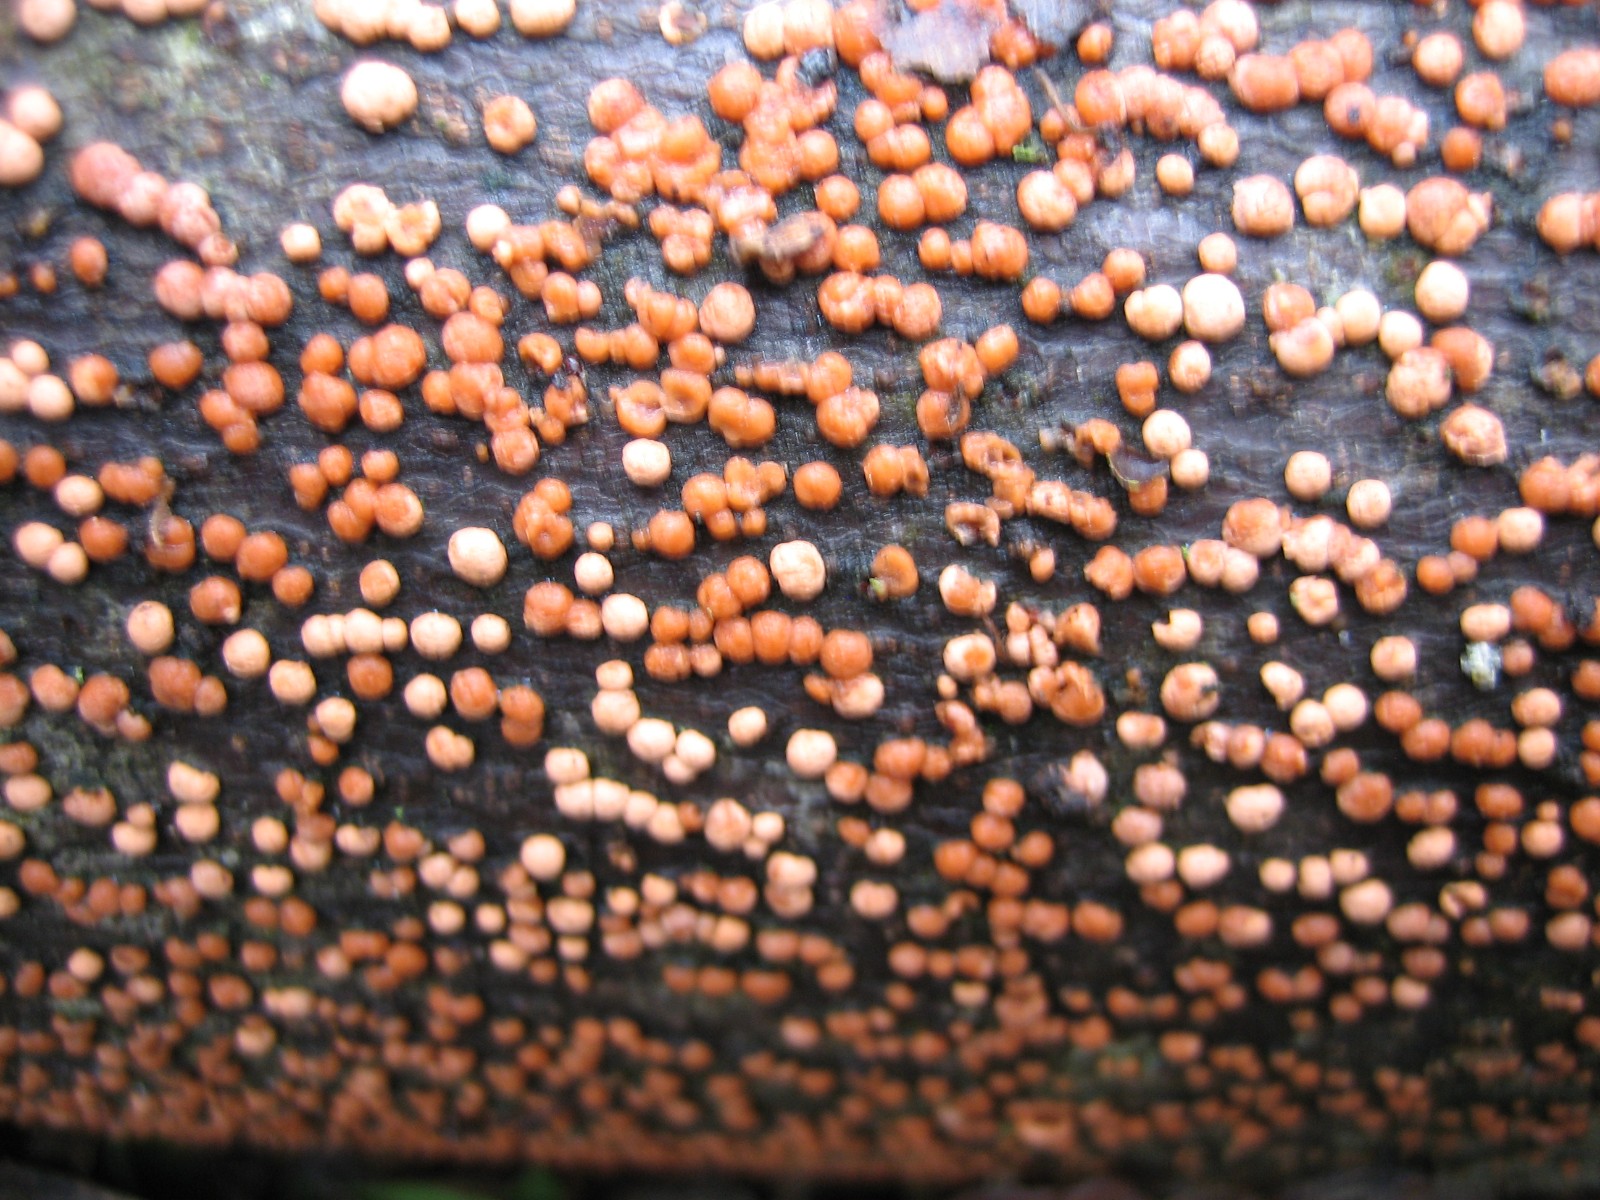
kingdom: Fungi
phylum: Ascomycota
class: Sordariomycetes
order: Hypocreales
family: Nectriaceae
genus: Nectria
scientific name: Nectria cinnabarina
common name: almindelig cinnobersvamp
